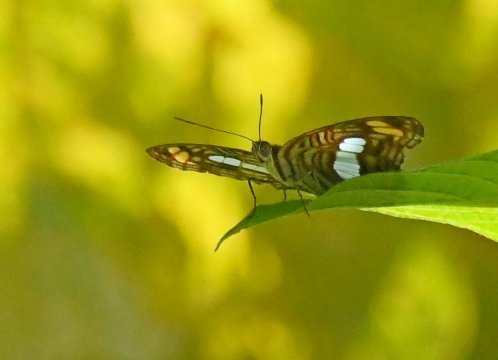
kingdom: Animalia
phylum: Arthropoda
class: Insecta
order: Lepidoptera
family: Nymphalidae
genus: Limenitis
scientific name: Limenitis Adelpha iphiclus
